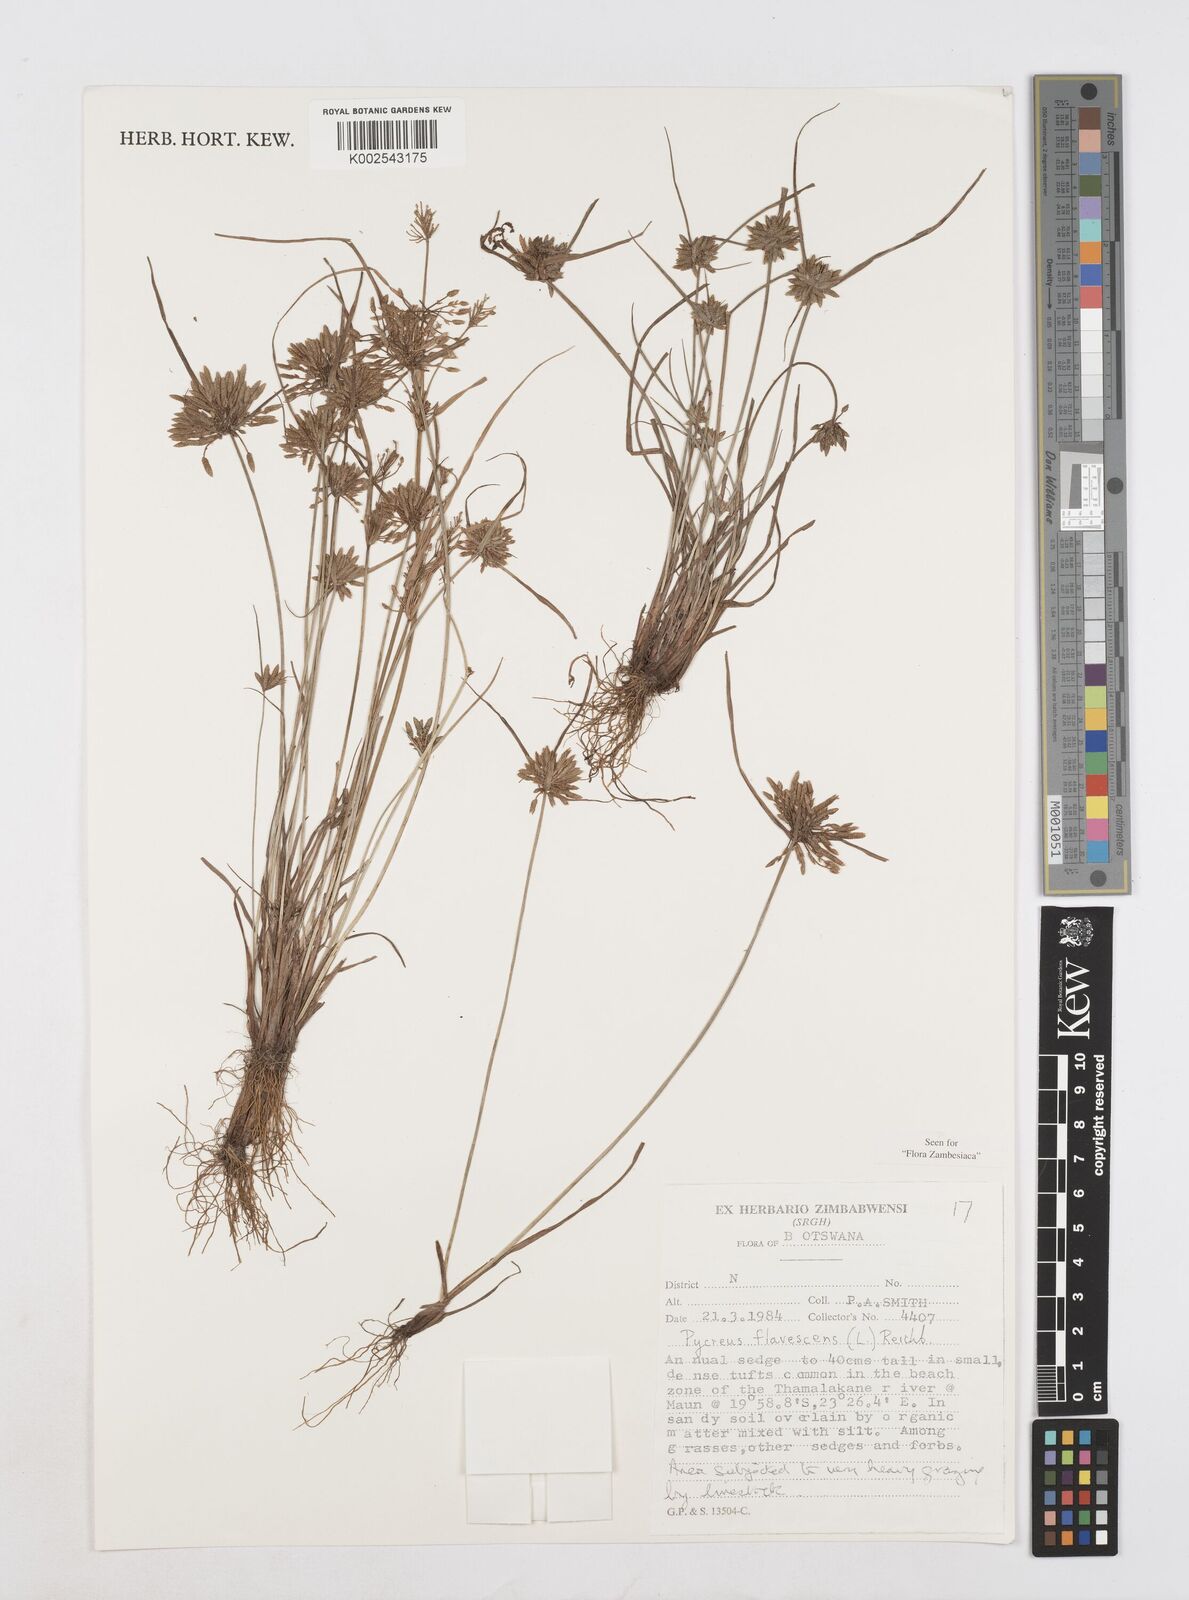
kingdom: Plantae
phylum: Tracheophyta
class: Liliopsida
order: Poales
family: Cyperaceae
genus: Cyperus
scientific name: Cyperus flavescens
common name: Yellow galingale
